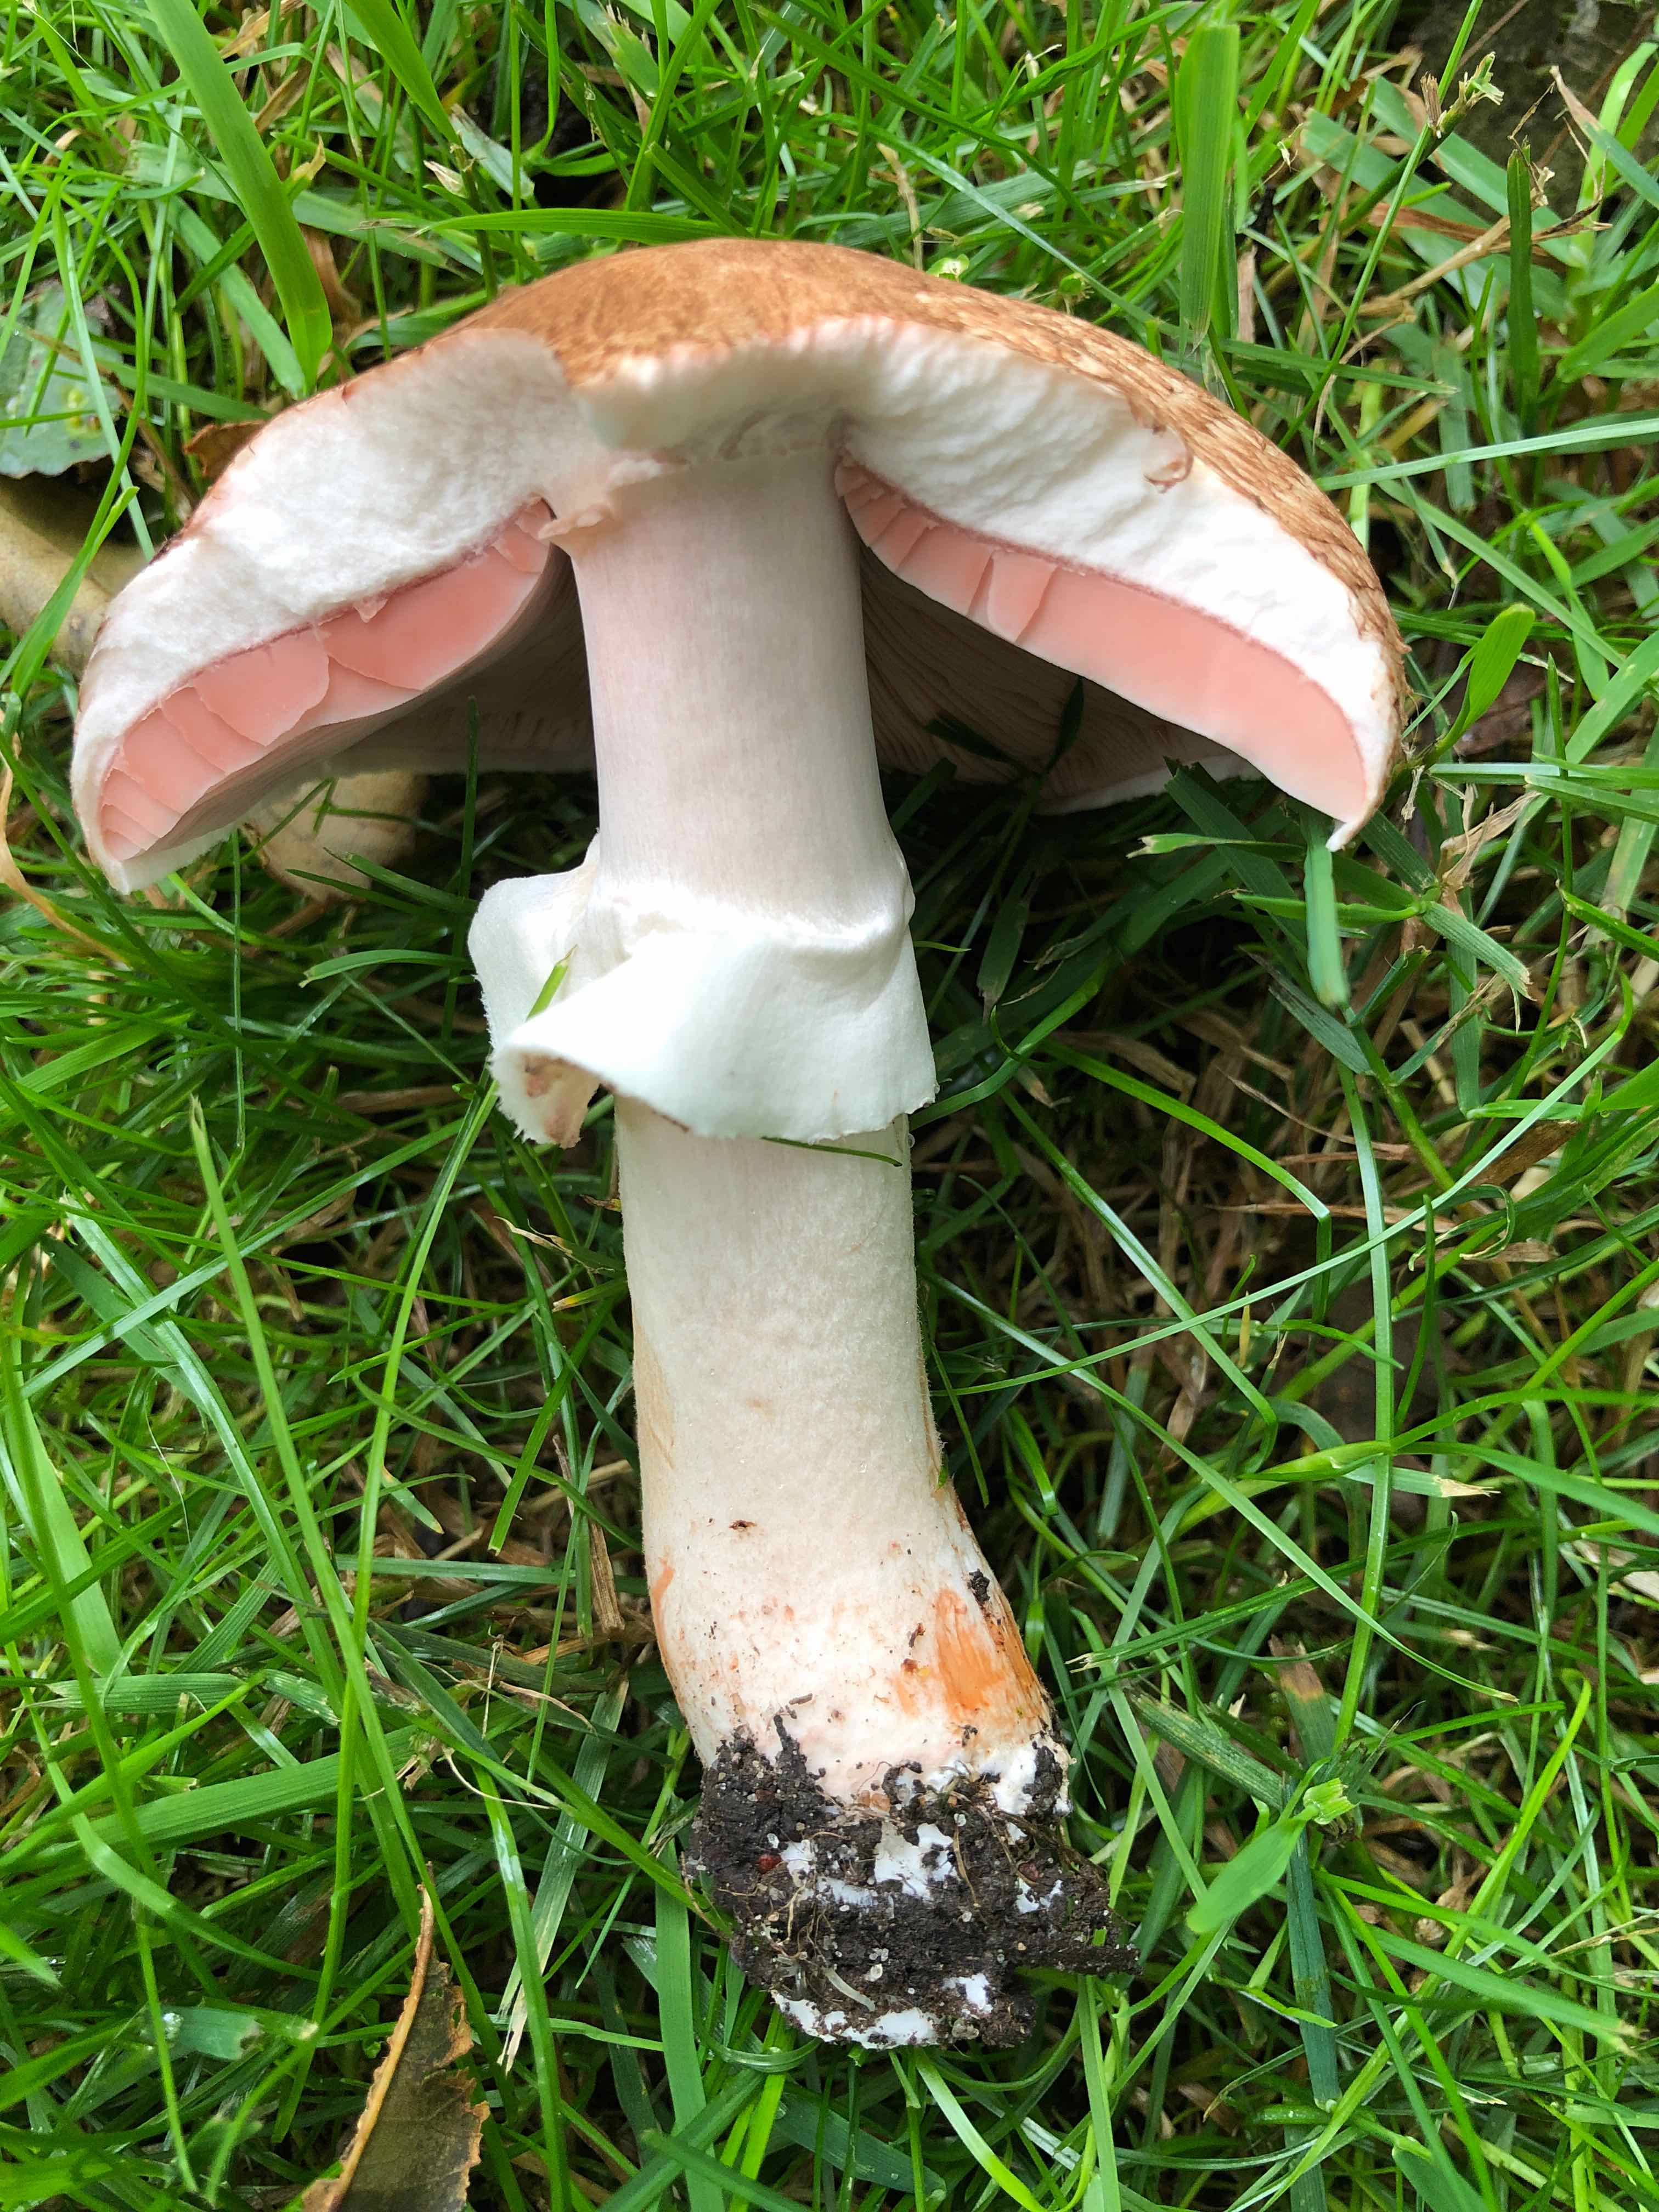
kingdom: Fungi
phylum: Basidiomycota
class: Agaricomycetes
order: Agaricales
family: Agaricaceae
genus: Agaricus
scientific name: Agaricus
